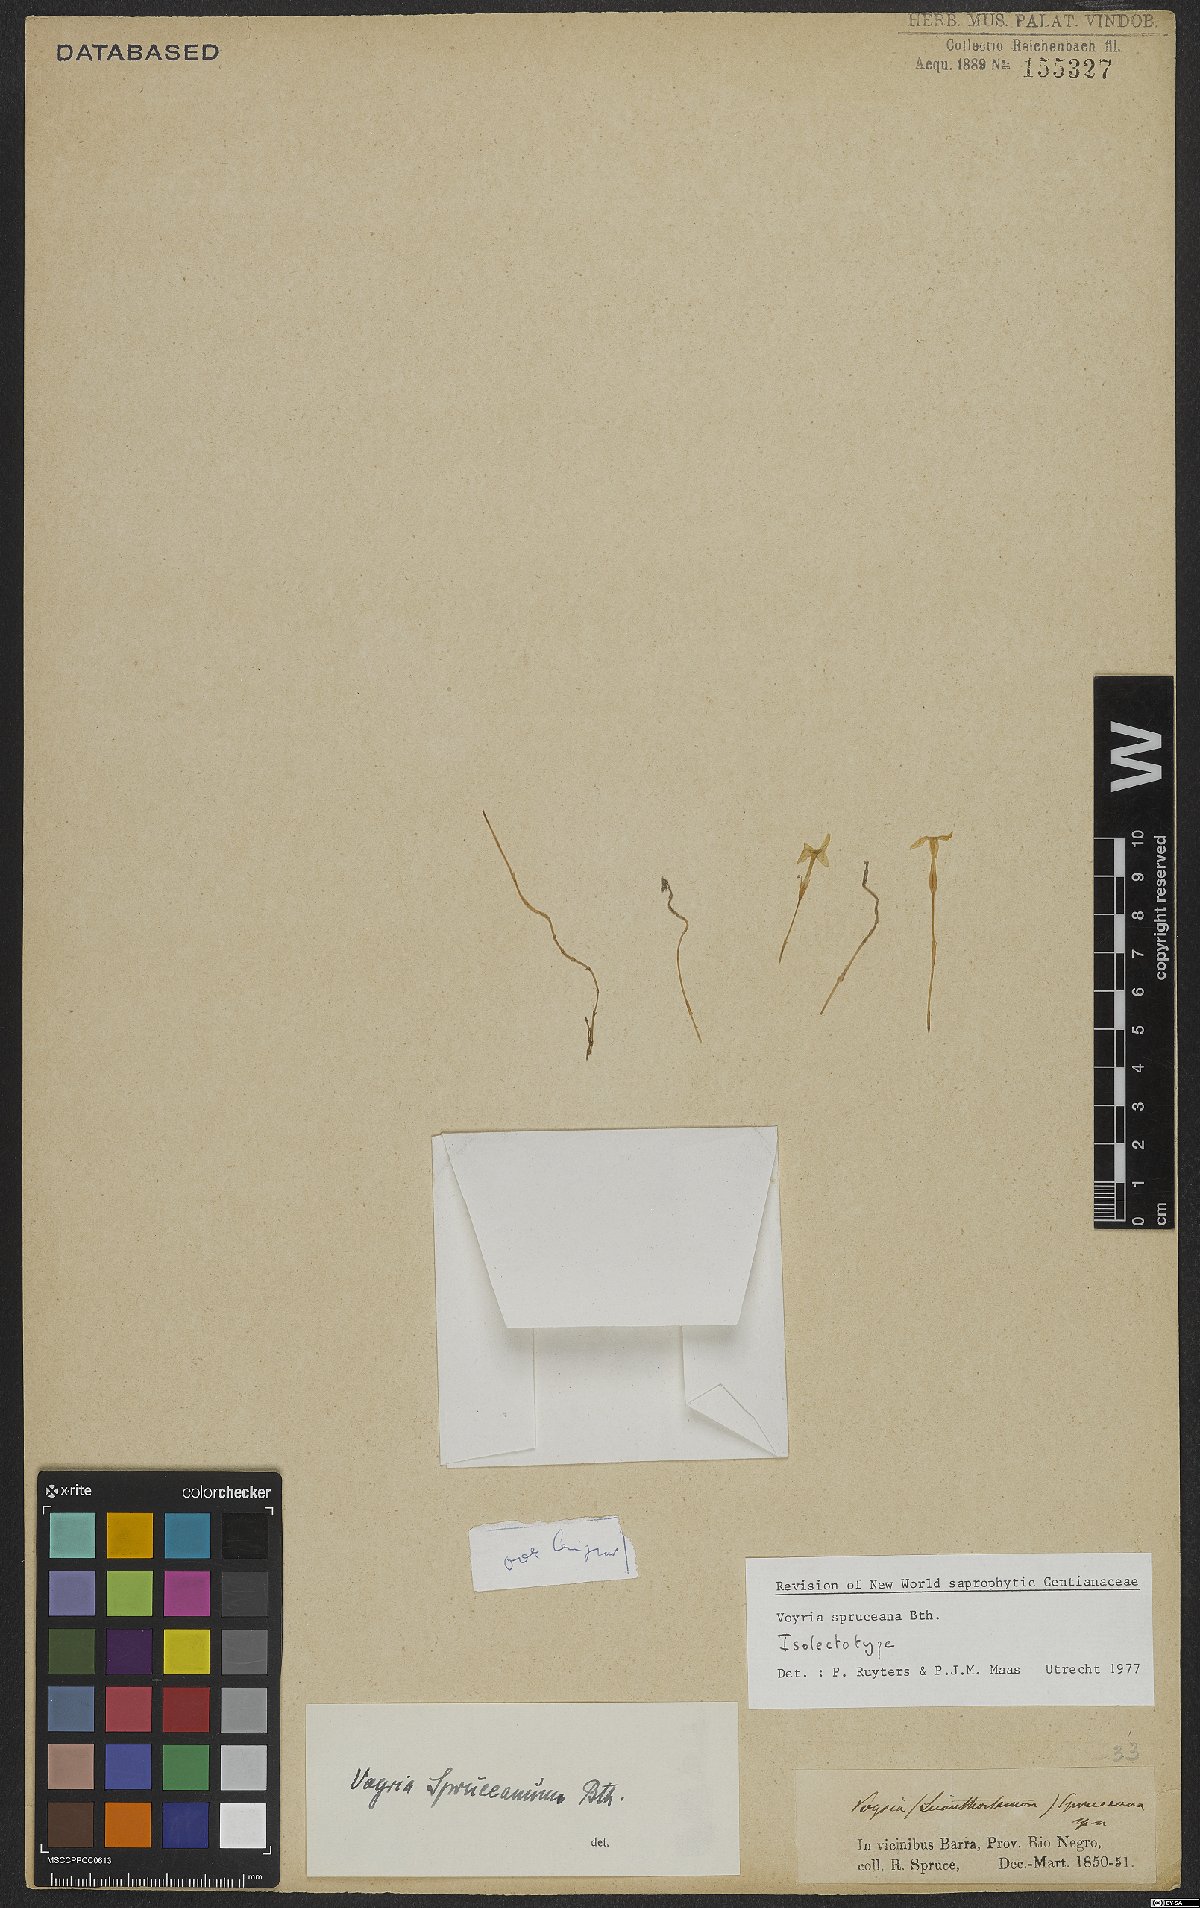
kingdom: Plantae
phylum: Tracheophyta
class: Magnoliopsida
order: Gentianales
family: Gentianaceae
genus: Voyria
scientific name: Voyria spruceana
